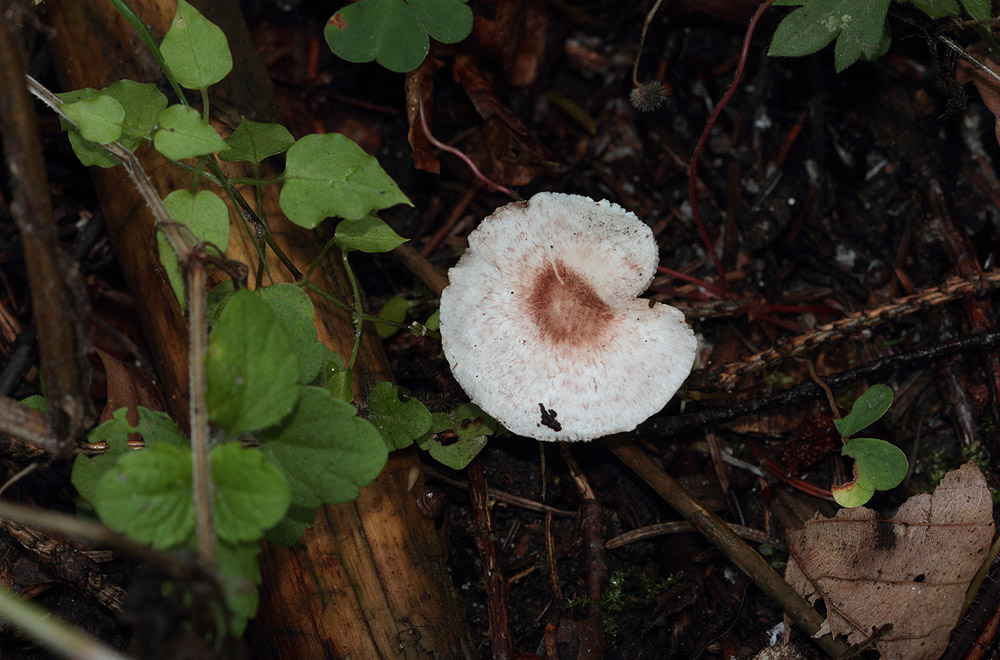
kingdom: Fungi
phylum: Basidiomycota
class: Agaricomycetes
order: Agaricales
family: Agaricaceae
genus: Agaricus
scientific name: Agaricus dulcidulus
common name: blegrød champignon
